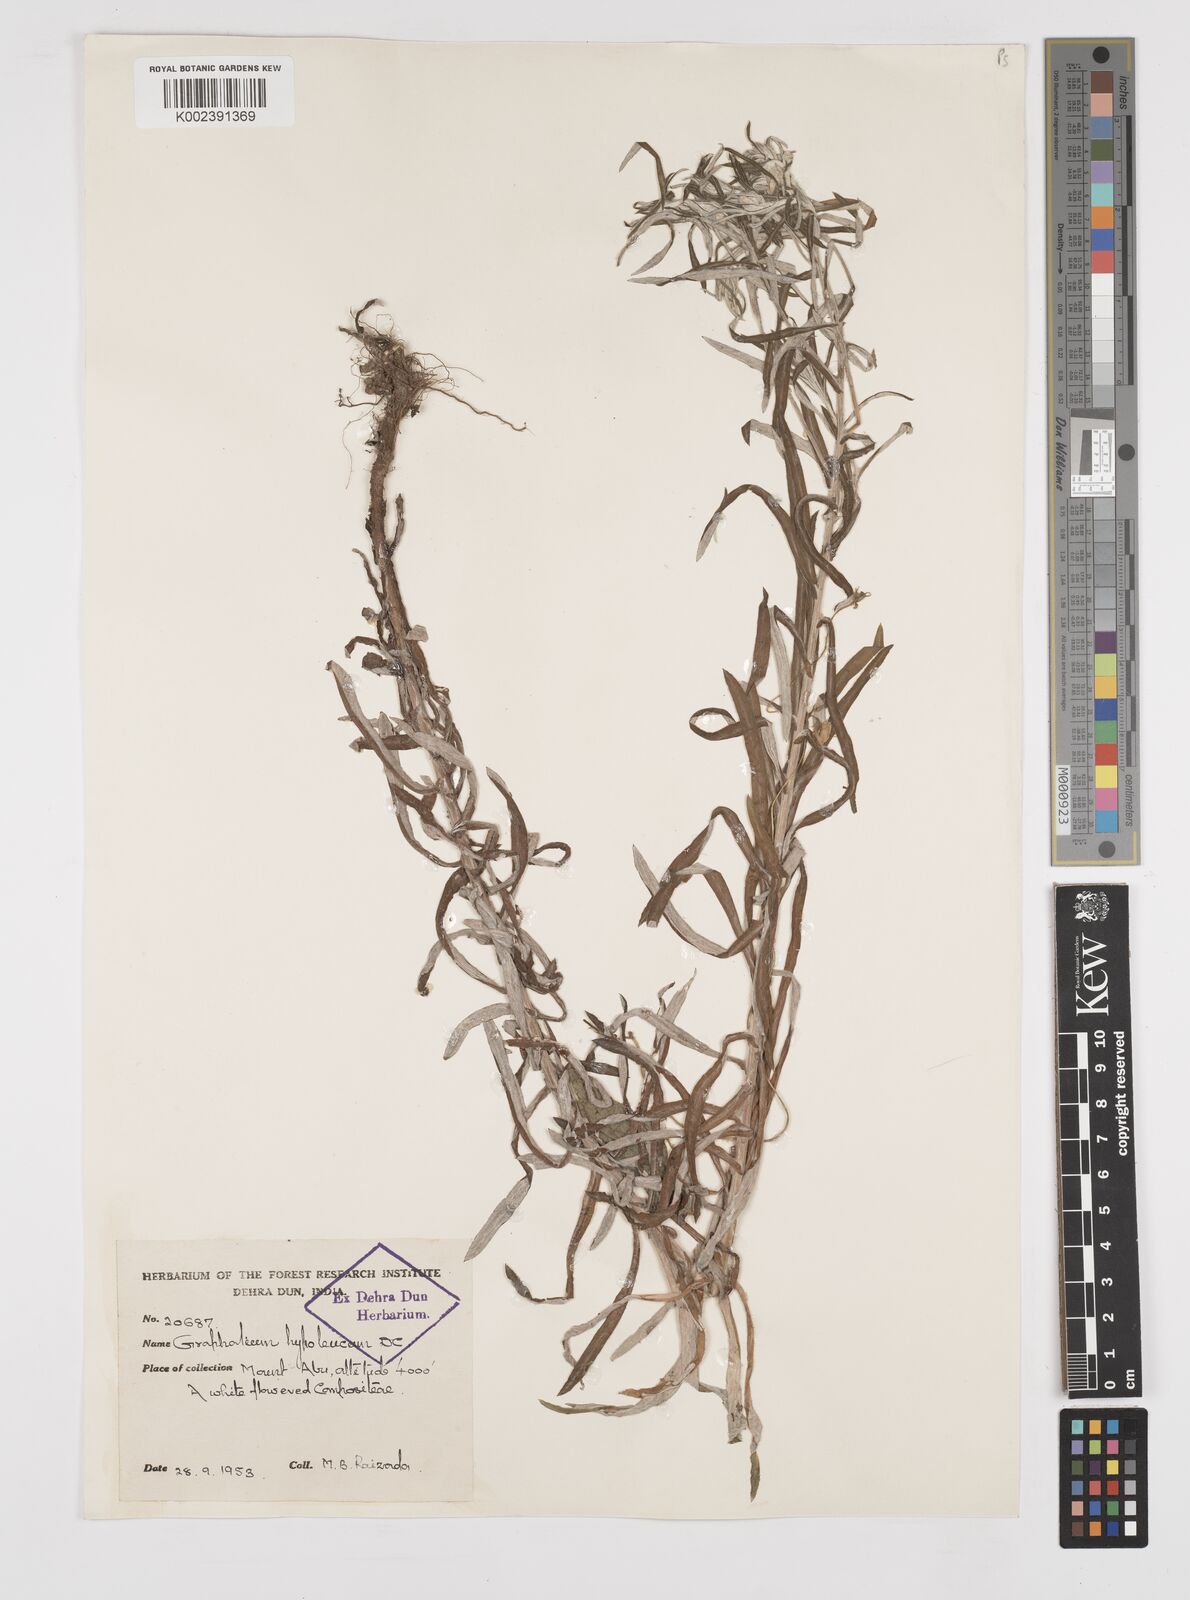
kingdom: Plantae
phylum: Tracheophyta
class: Magnoliopsida
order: Asterales
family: Asteraceae
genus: Pseudognaphalium
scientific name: Pseudognaphalium hypoleucum
